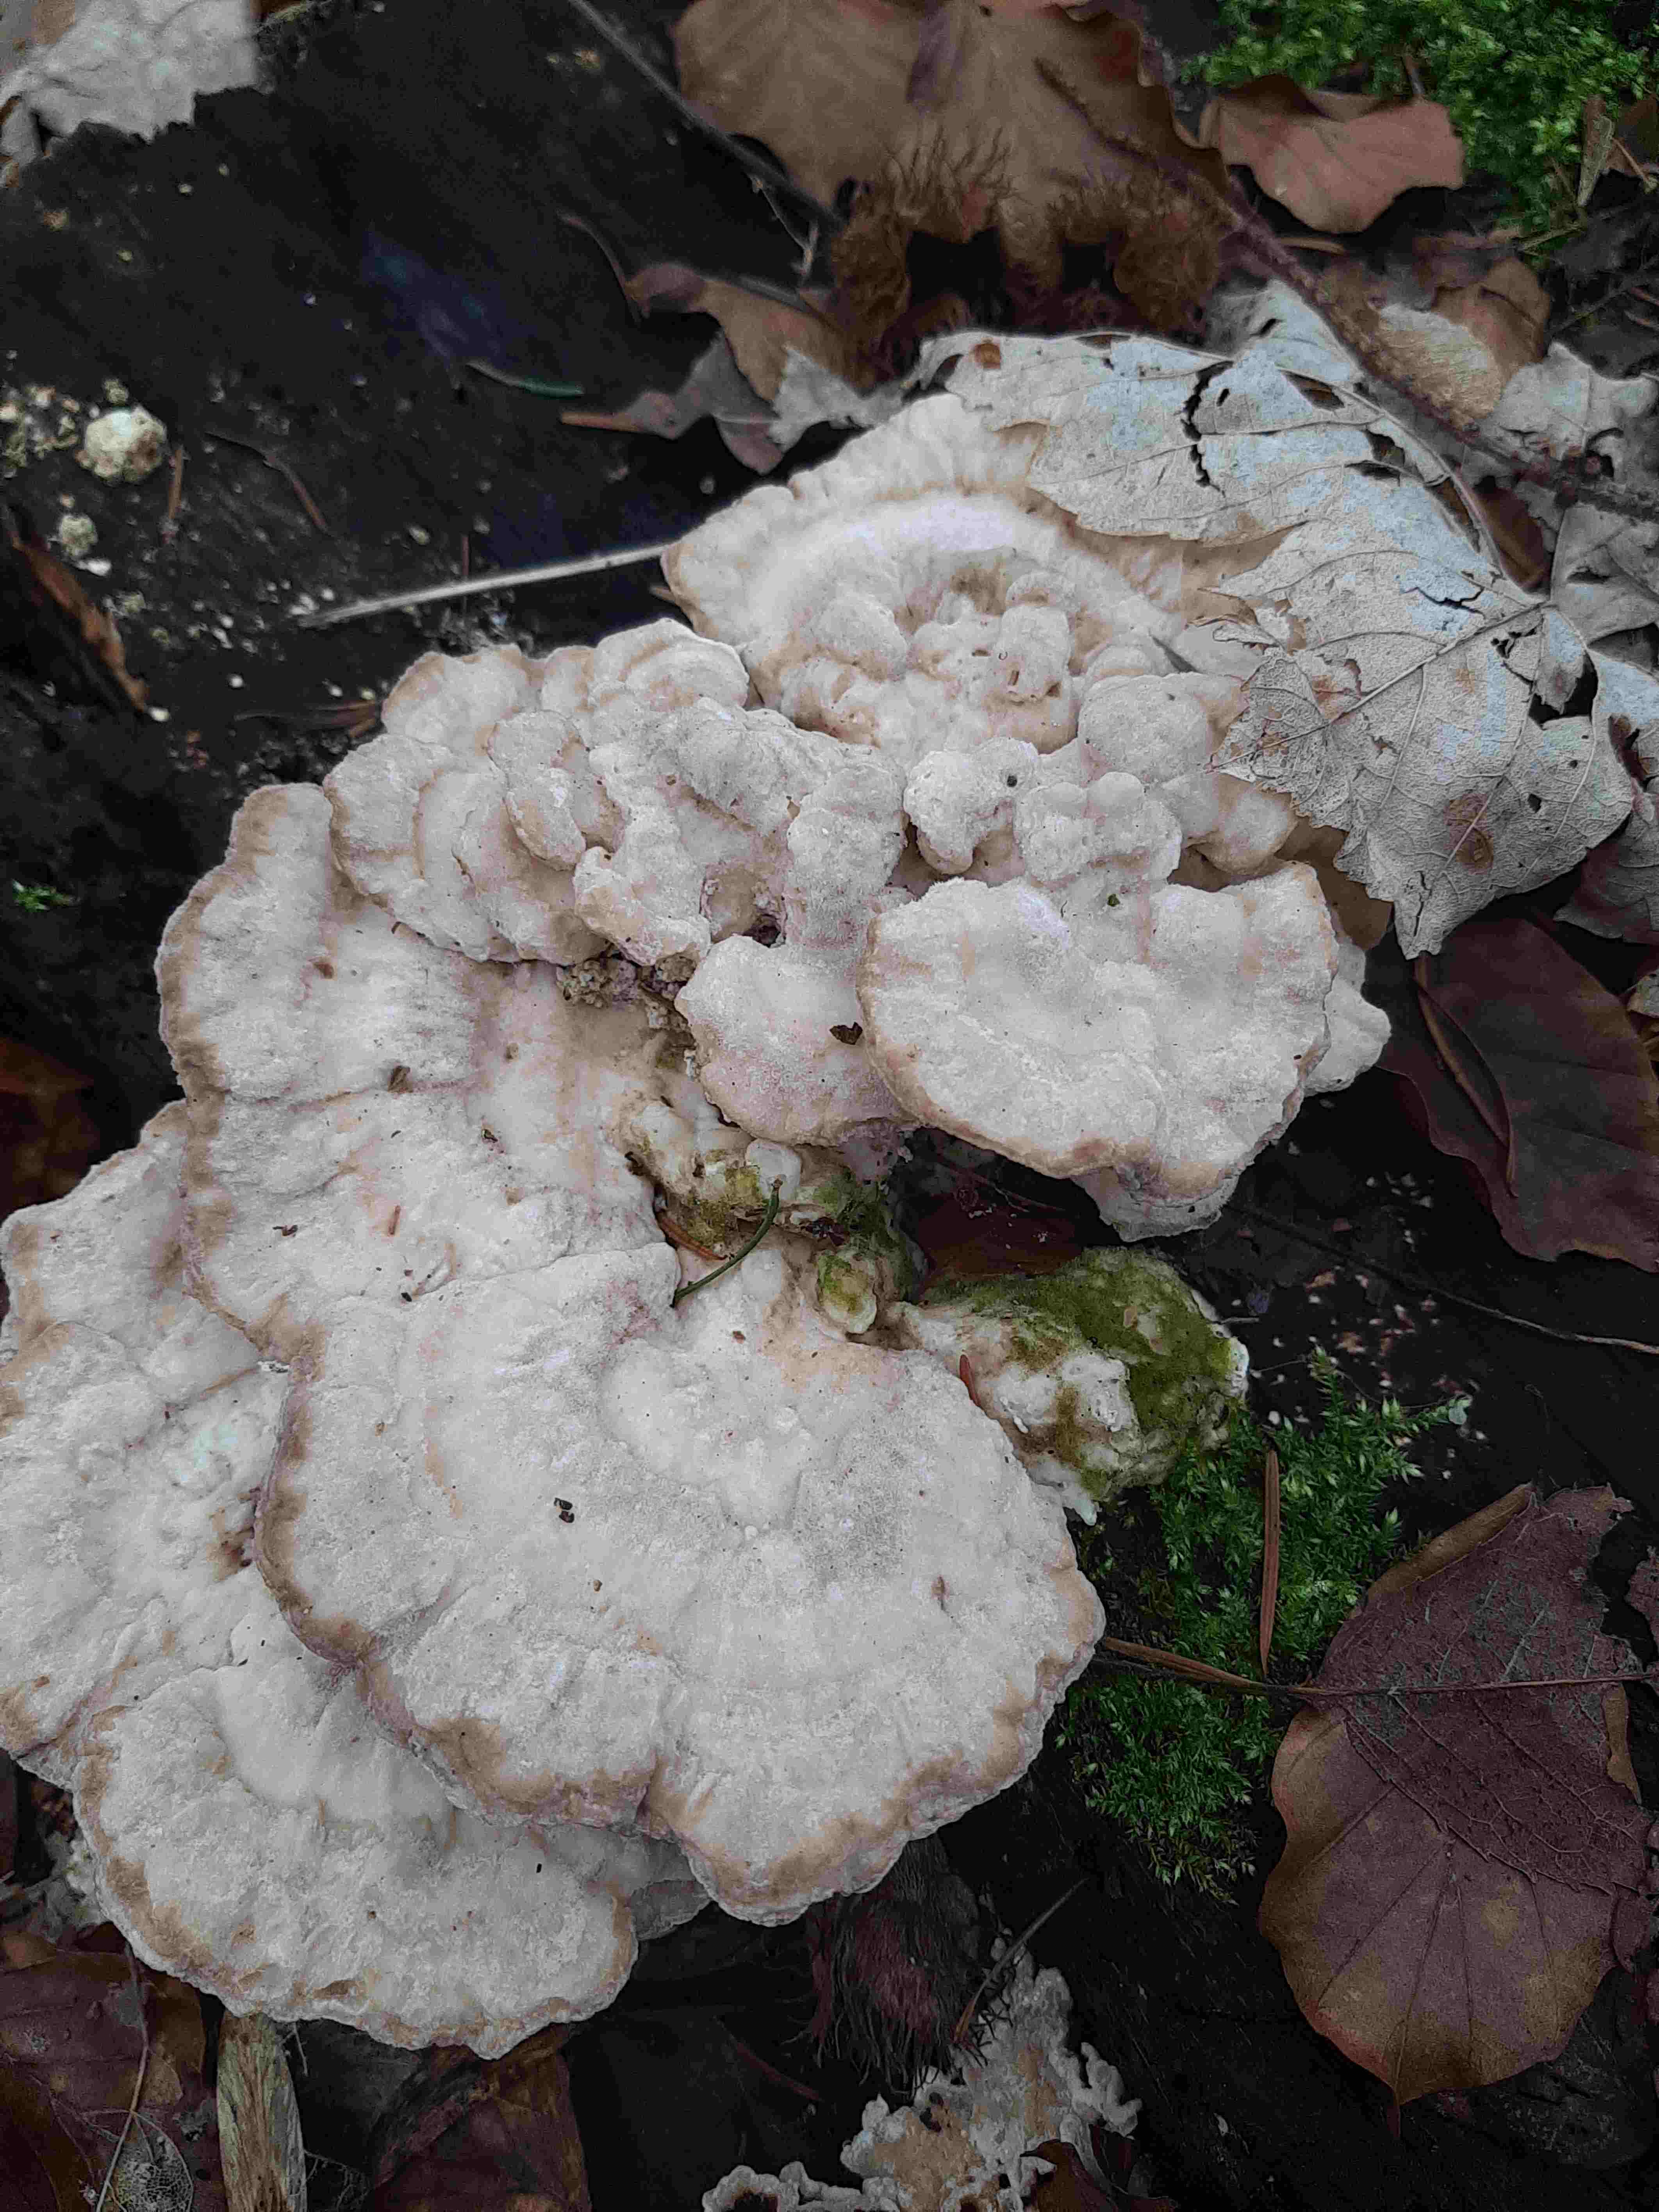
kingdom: Fungi
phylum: Basidiomycota
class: Agaricomycetes
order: Polyporales
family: Polyporaceae
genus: Trametes
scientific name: Trametes gibbosa
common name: puklet læderporesvamp
